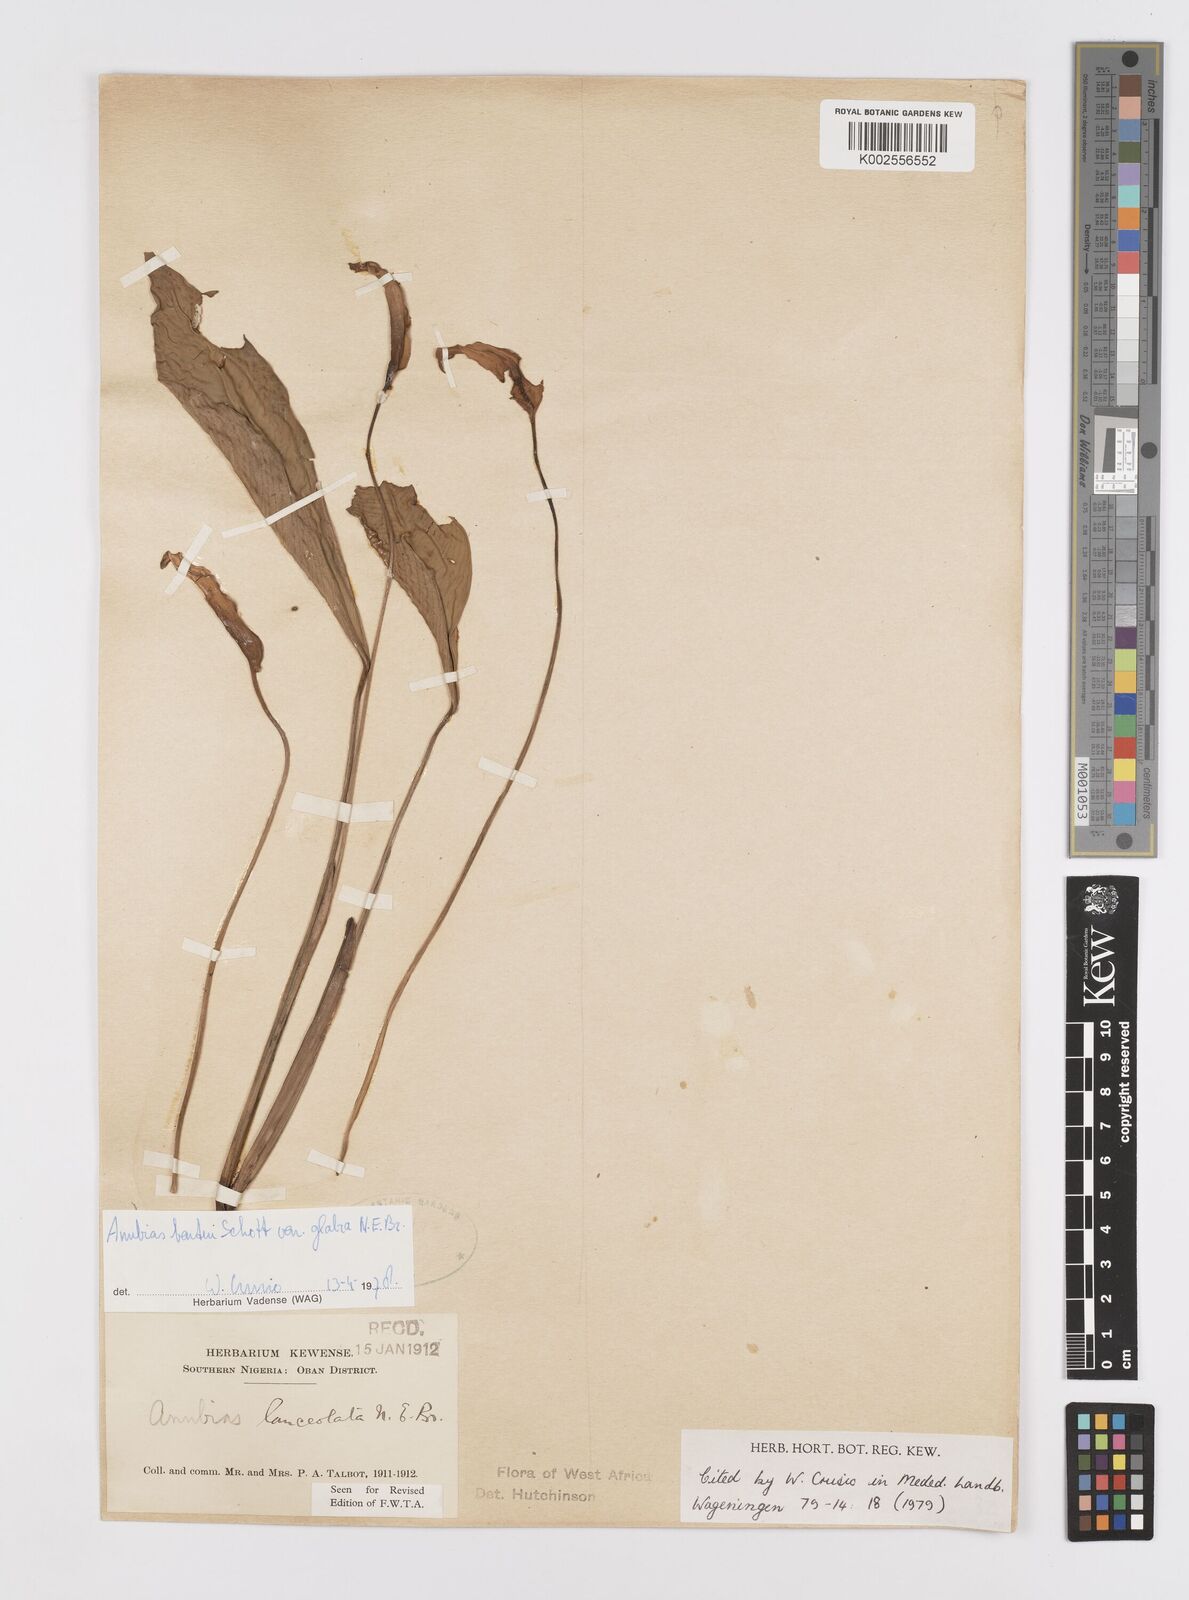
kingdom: Plantae
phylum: Tracheophyta
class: Liliopsida
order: Alismatales
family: Araceae
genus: Anubias
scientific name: Anubias barteri
